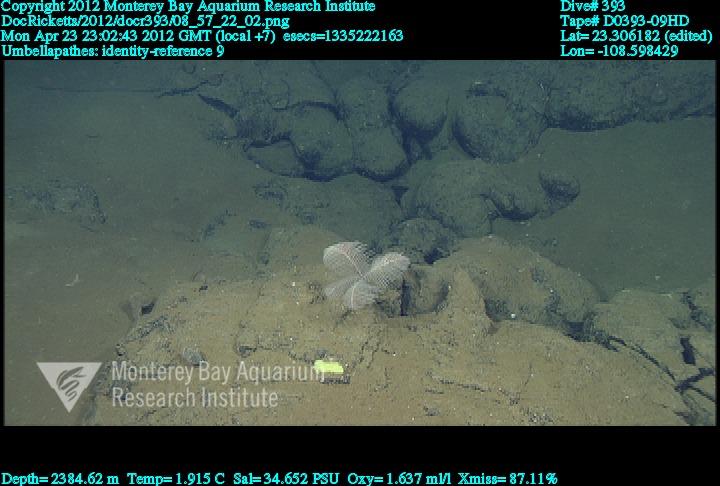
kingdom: Animalia
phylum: Cnidaria
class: Anthozoa
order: Antipatharia
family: Schizopathidae
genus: Umbellapathes
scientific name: Umbellapathes
